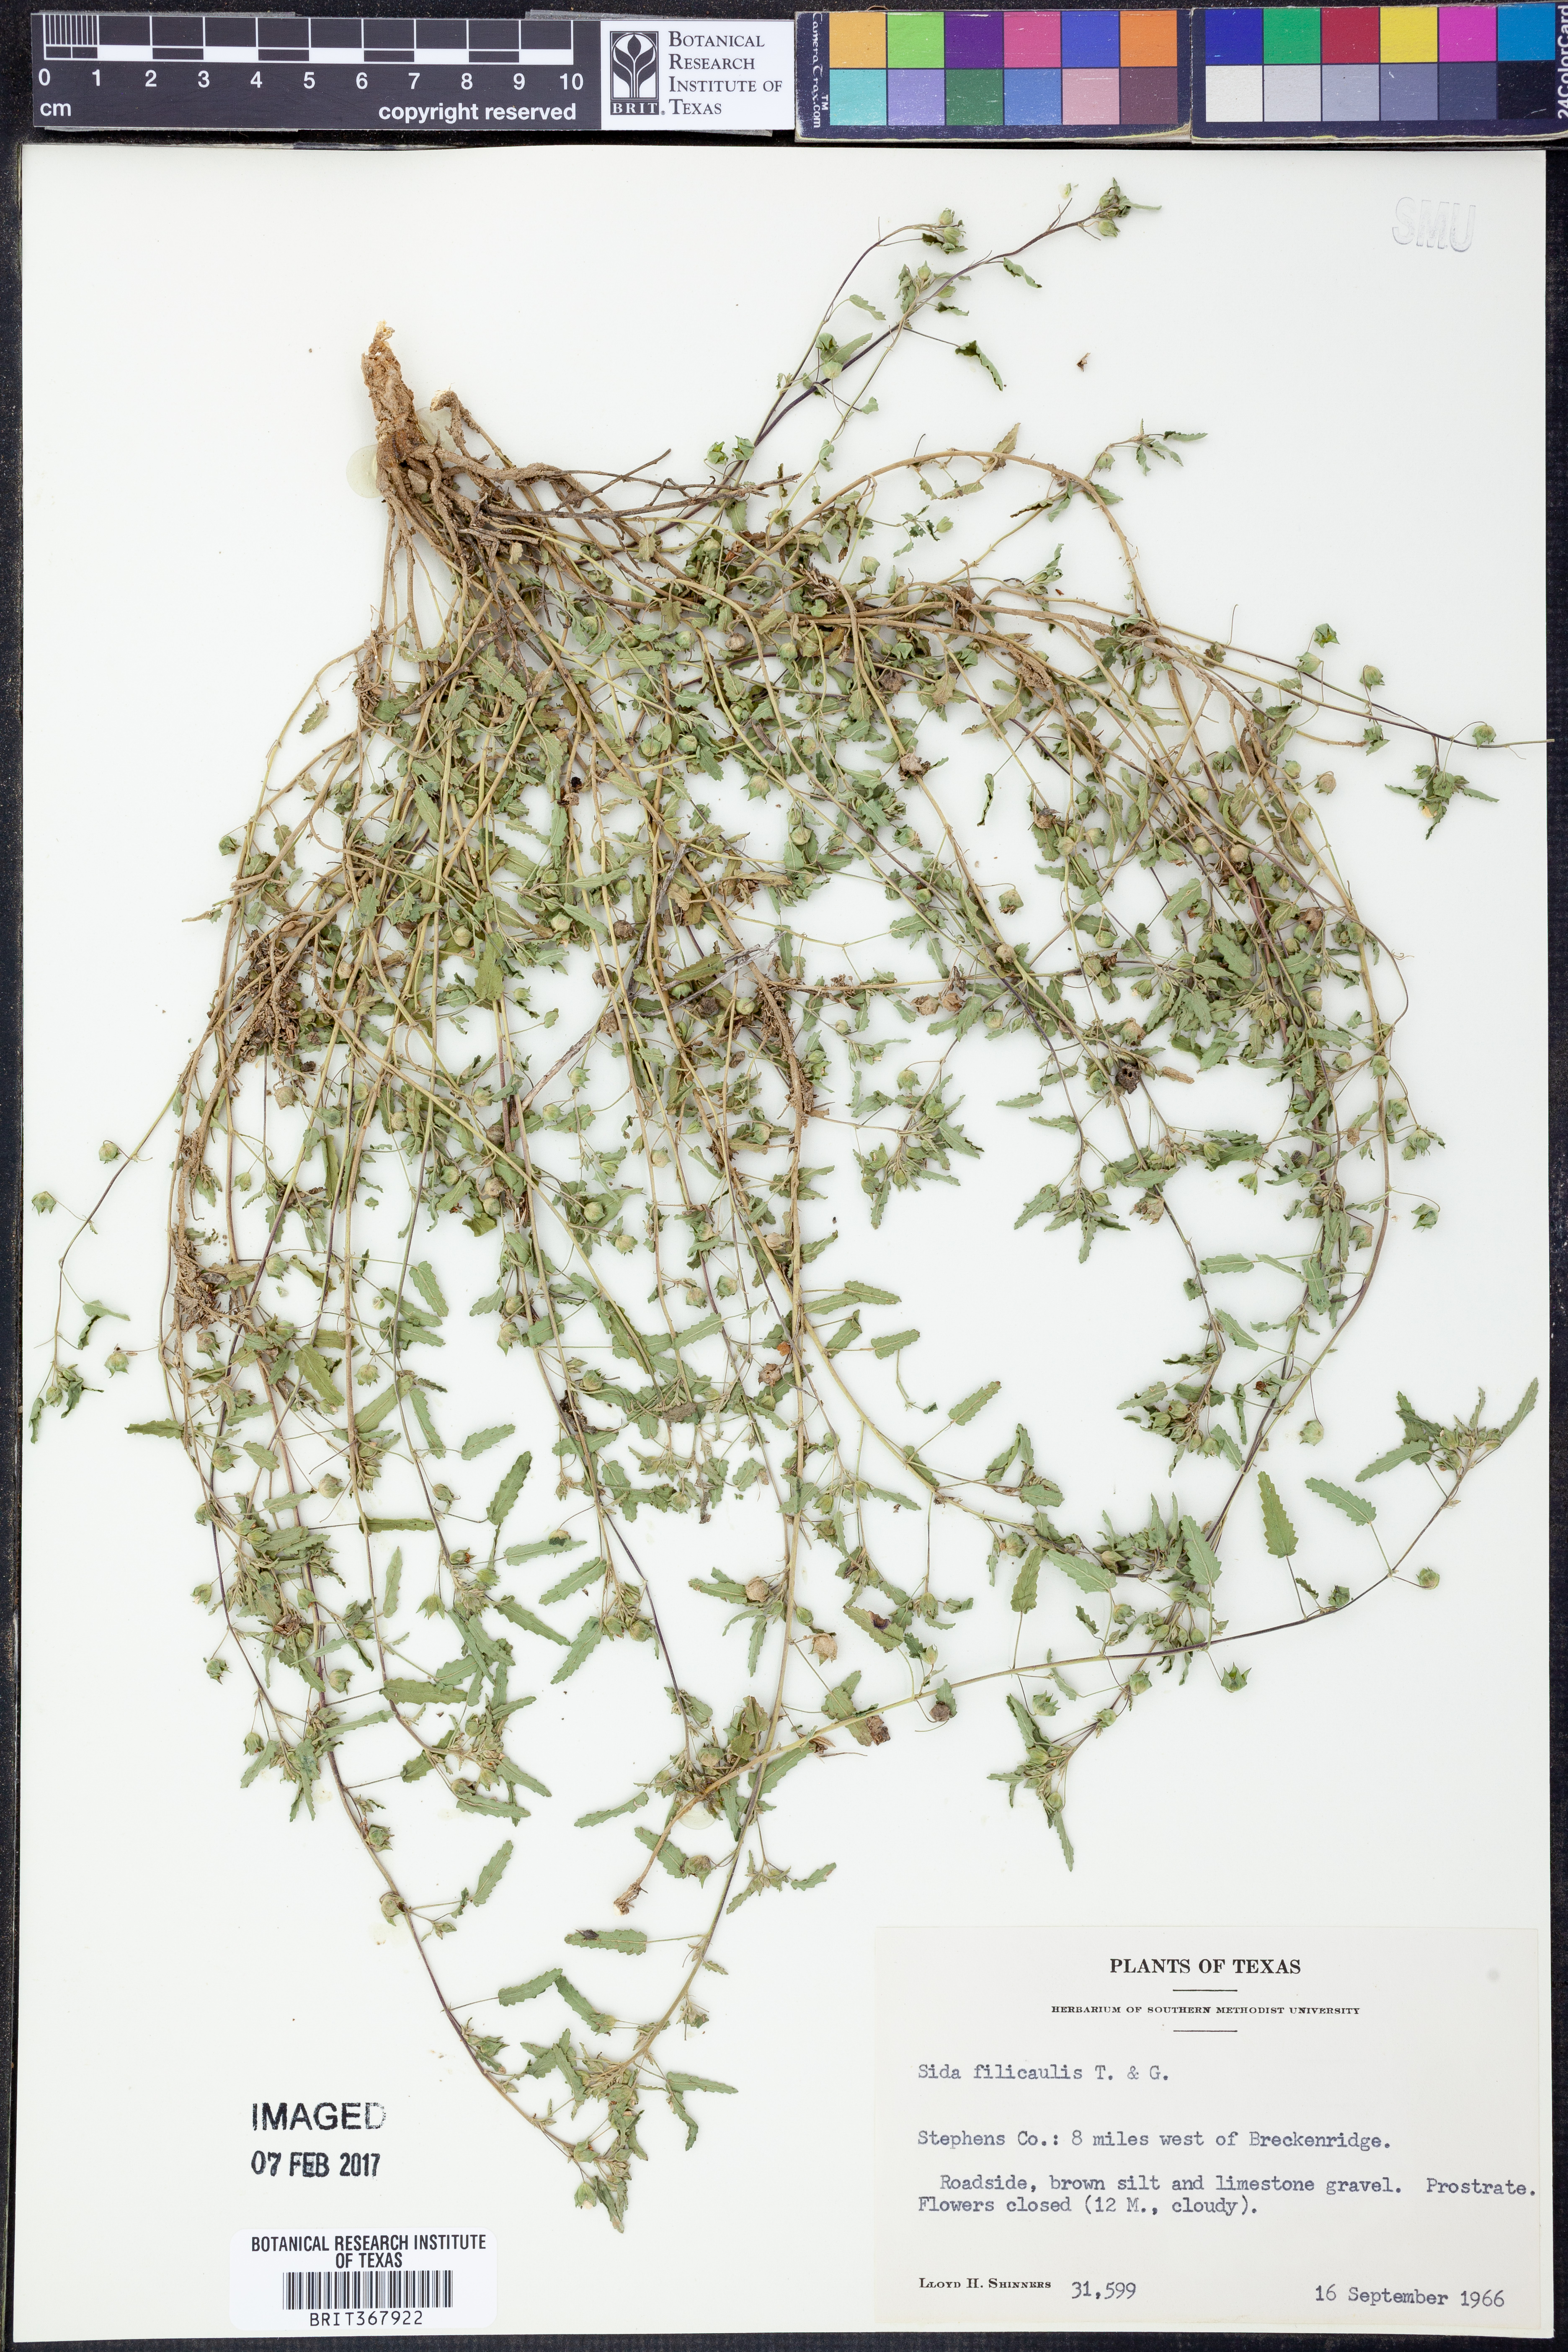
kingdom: Plantae
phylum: Tracheophyta
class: Magnoliopsida
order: Malvales
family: Malvaceae
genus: Sida
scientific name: Sida abutilifolia
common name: Spreading fanpetals
